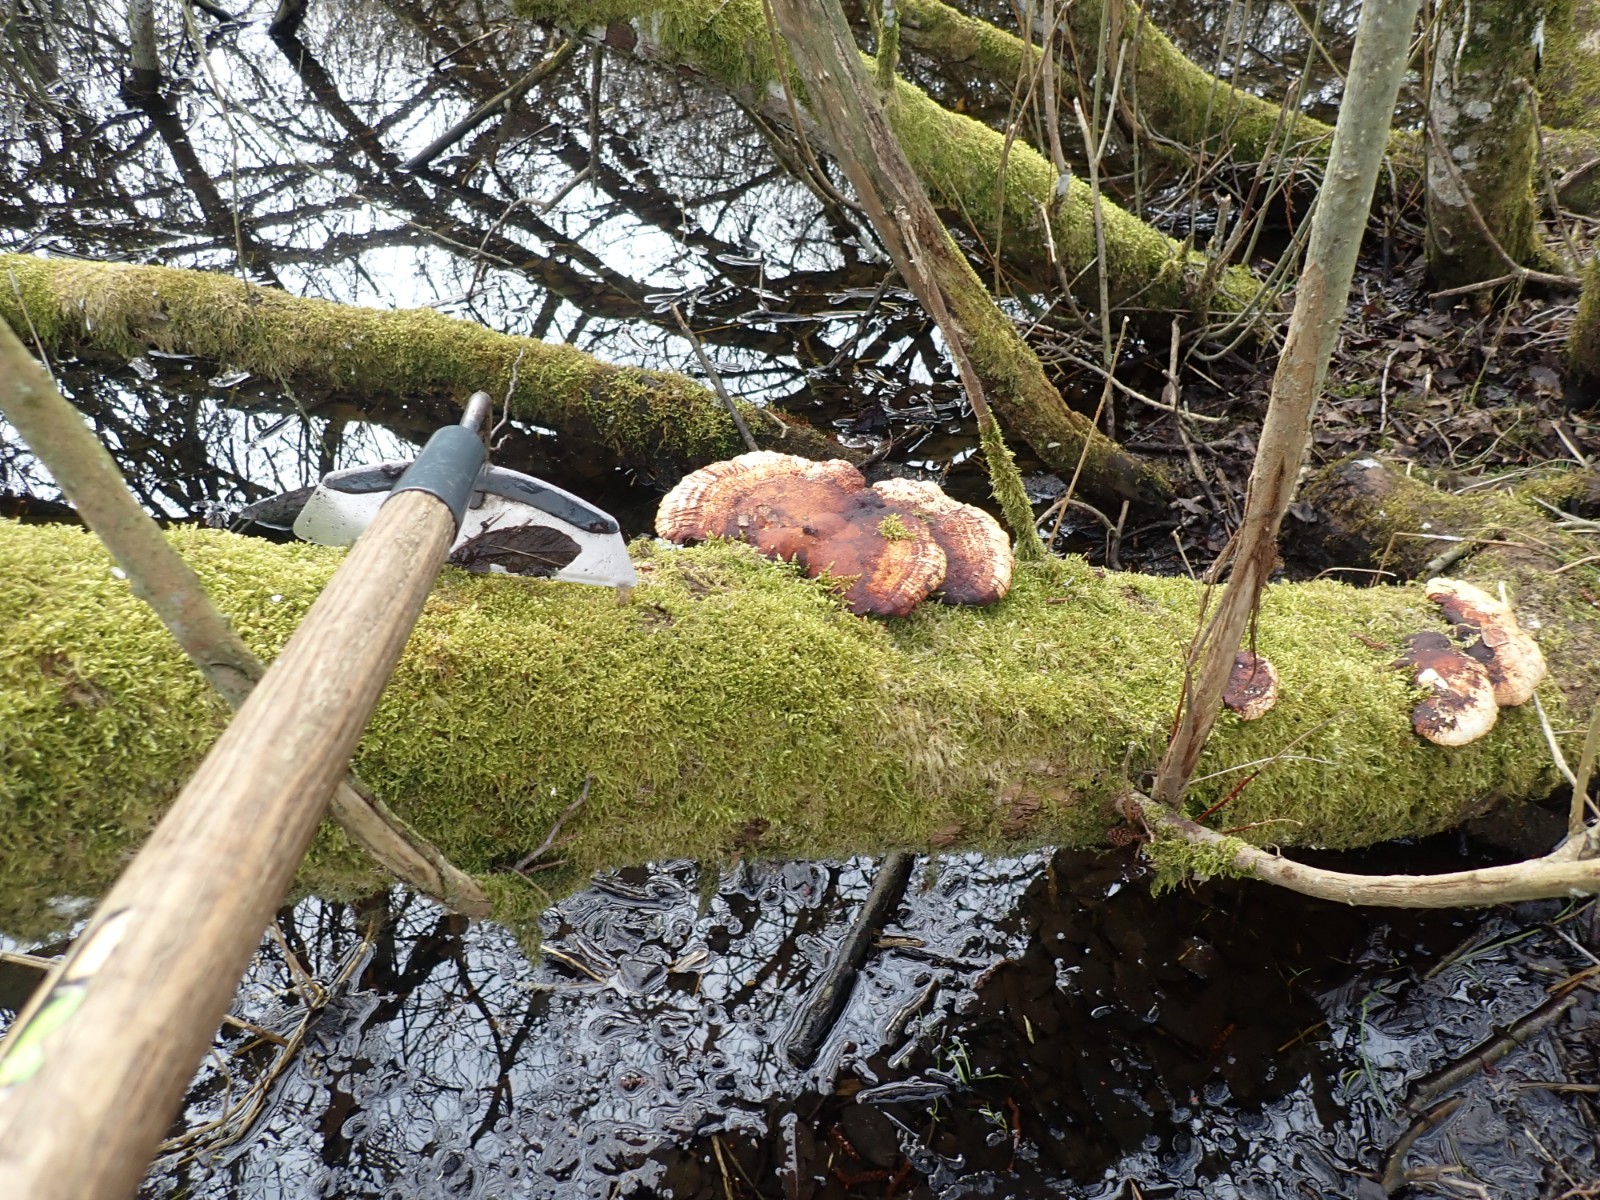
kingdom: Fungi
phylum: Basidiomycota
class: Agaricomycetes
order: Polyporales
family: Polyporaceae
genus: Daedaleopsis
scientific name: Daedaleopsis confragosa
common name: rødmende læderporesvamp
